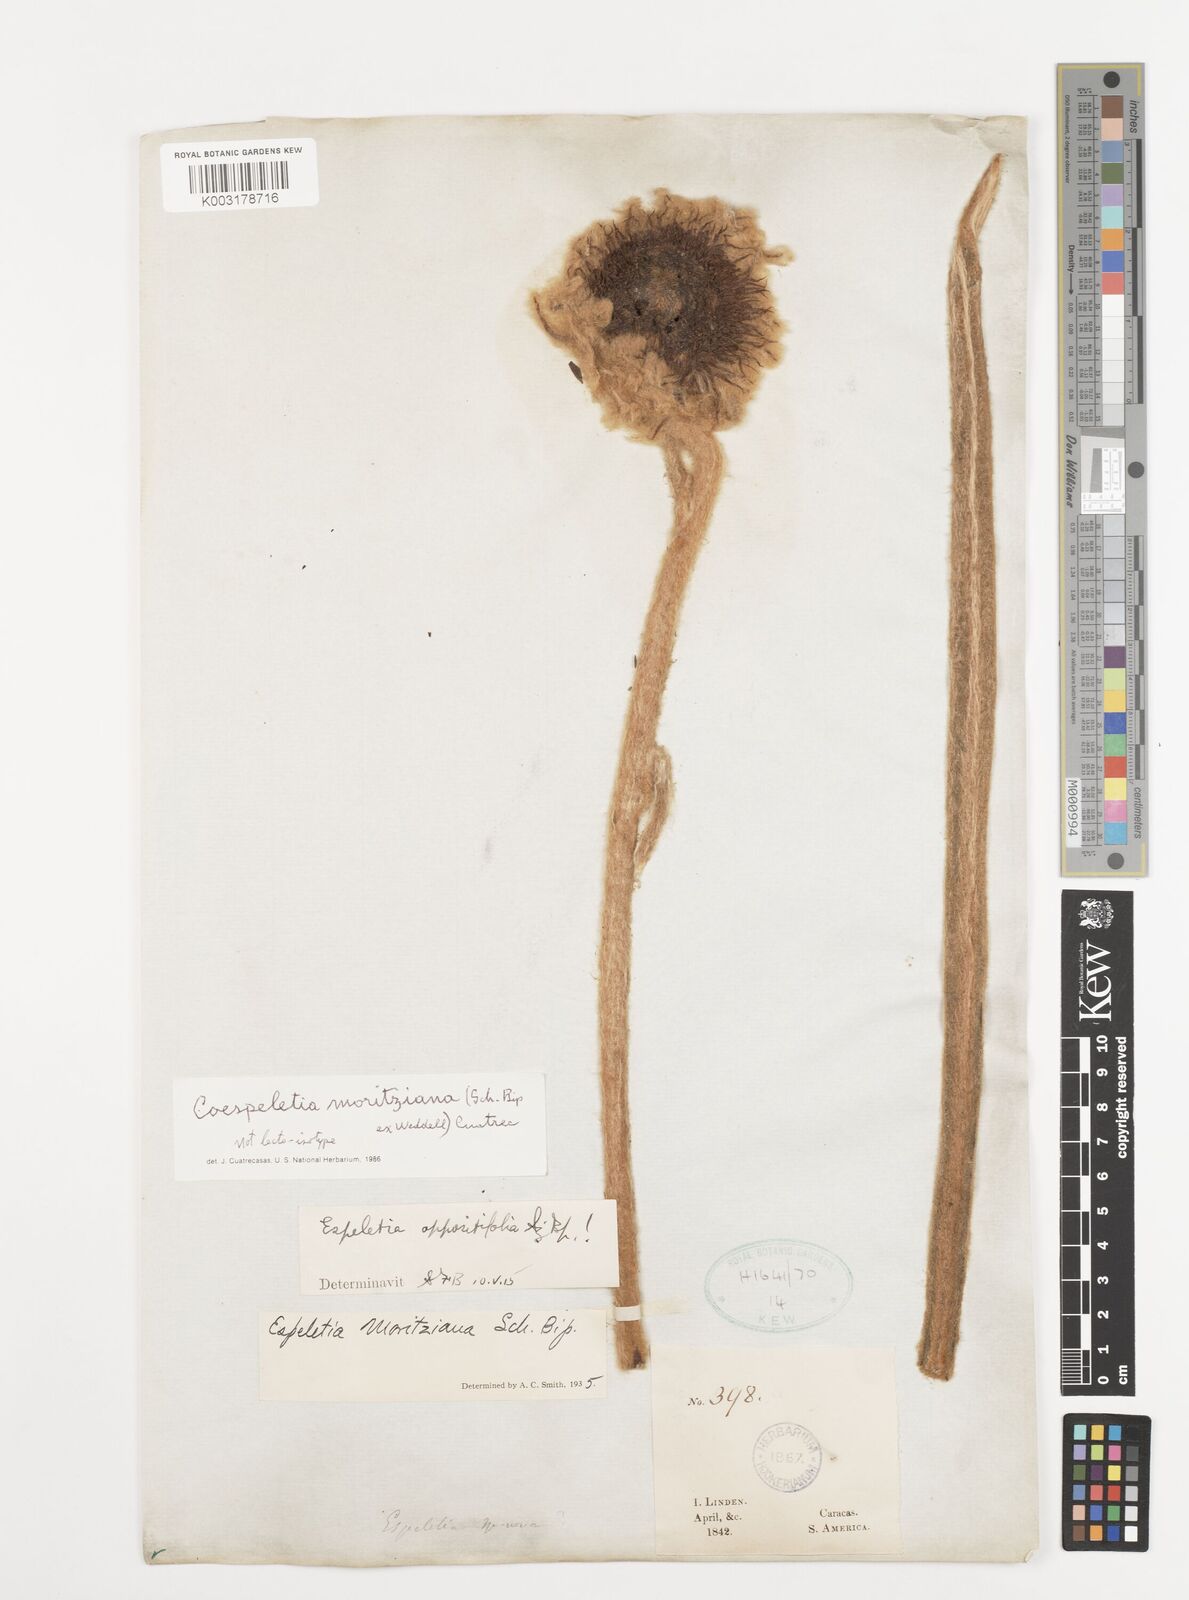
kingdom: Plantae
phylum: Tracheophyta
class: Magnoliopsida
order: Asterales
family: Asteraceae
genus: Espeletia
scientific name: Espeletia moritziana
